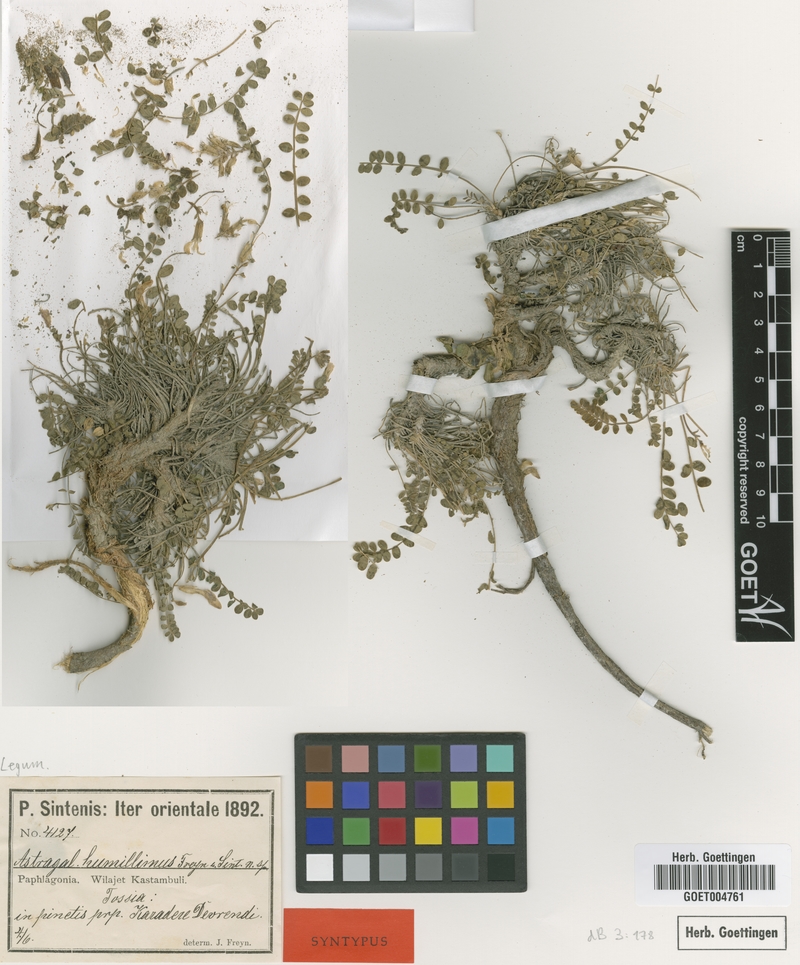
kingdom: Plantae
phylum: Tracheophyta
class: Magnoliopsida
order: Fabales
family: Fabaceae
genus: Astragalus
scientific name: Astragalus prosgaeus
